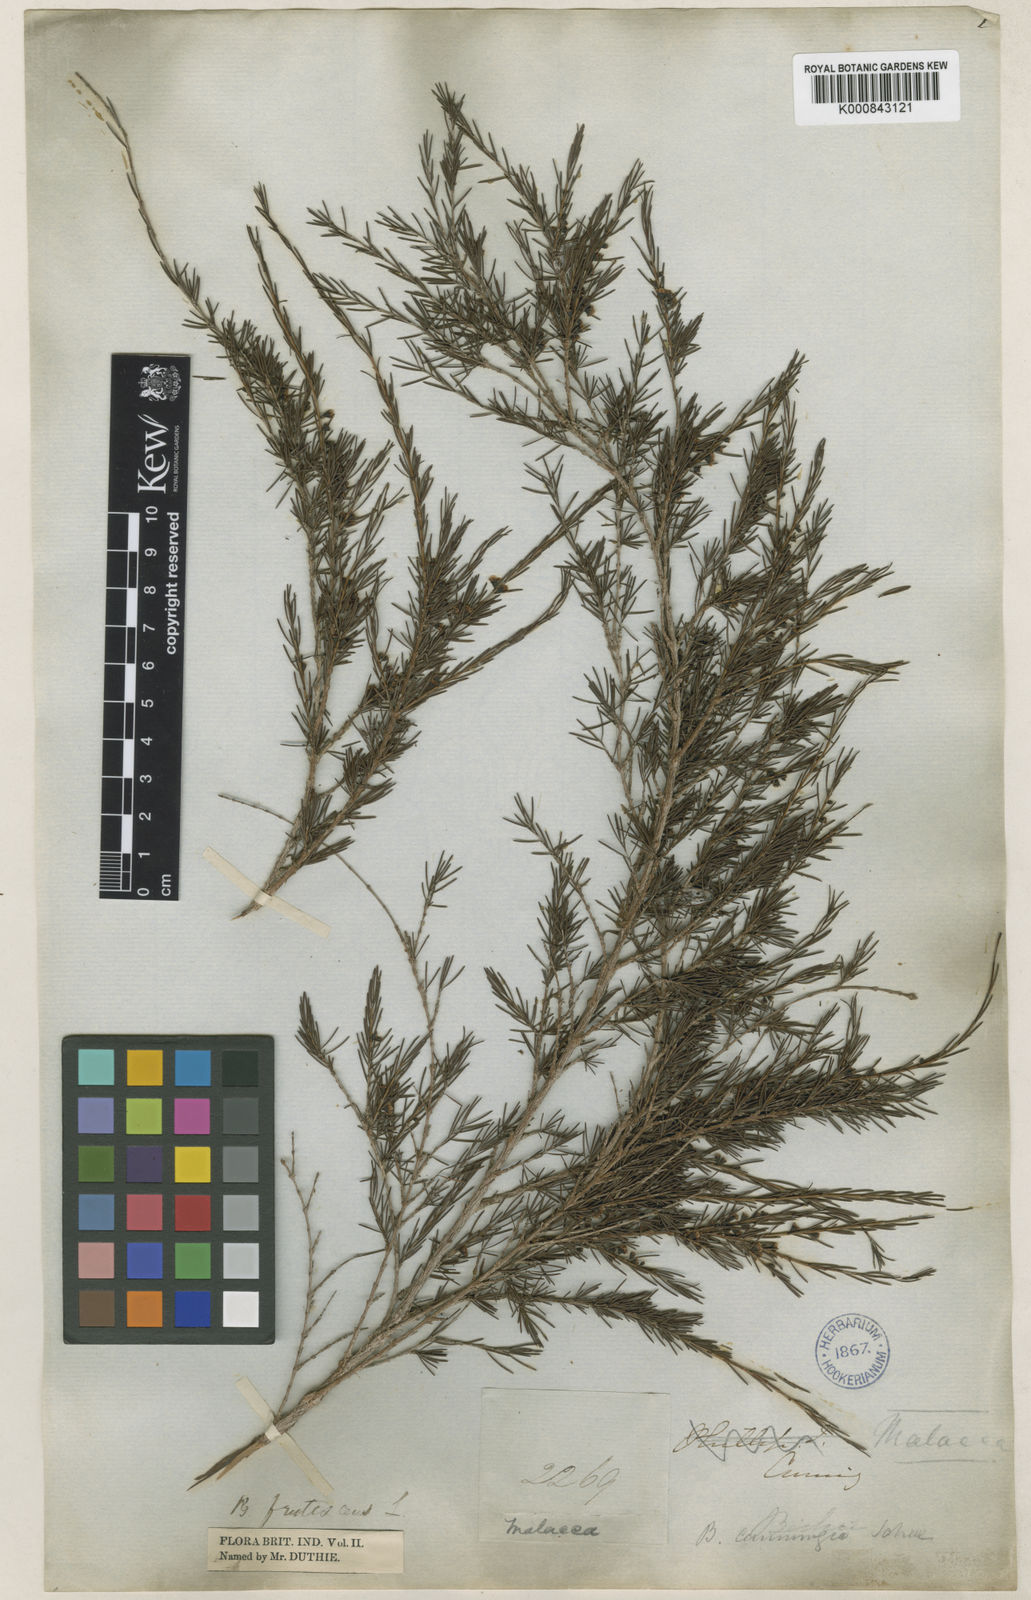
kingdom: Plantae
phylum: Tracheophyta
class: Magnoliopsida
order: Myrtales
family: Myrtaceae
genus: Baeckea
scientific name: Baeckea frutescens
